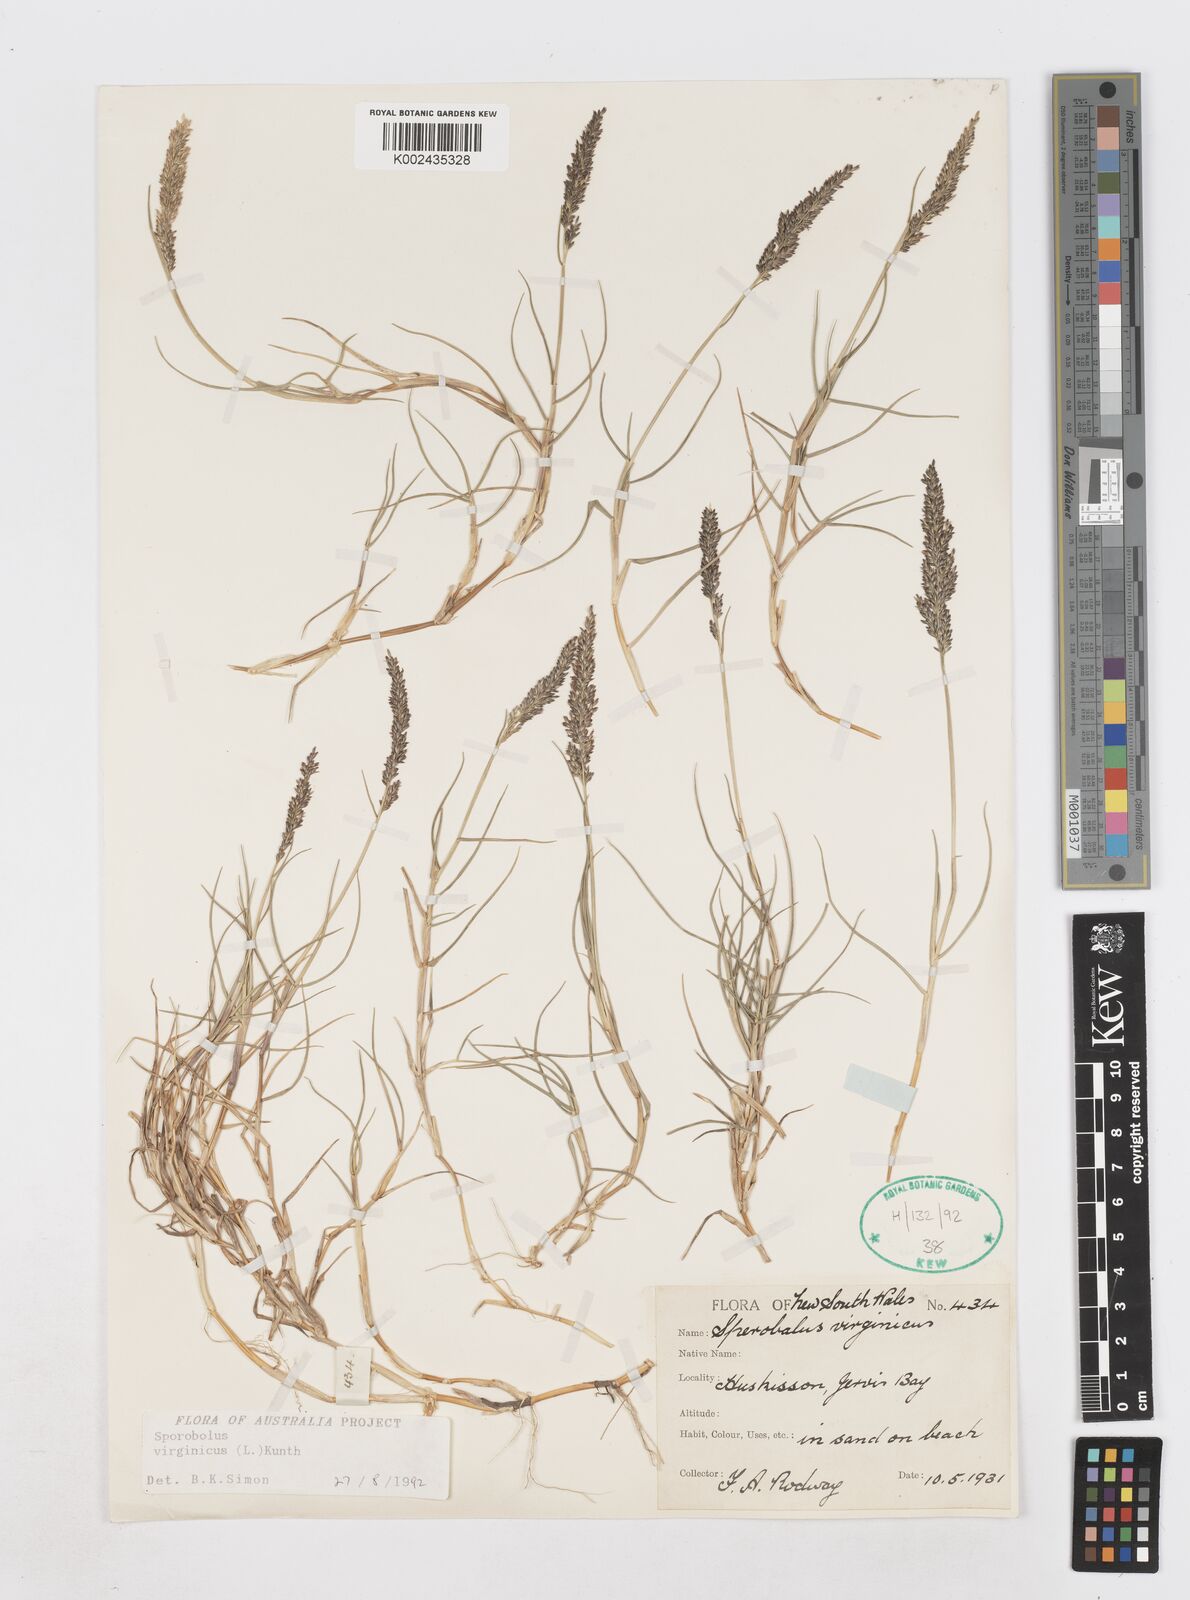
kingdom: Plantae
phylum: Tracheophyta
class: Liliopsida
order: Poales
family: Poaceae
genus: Sporobolus
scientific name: Sporobolus virginicus
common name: Beach dropseed
